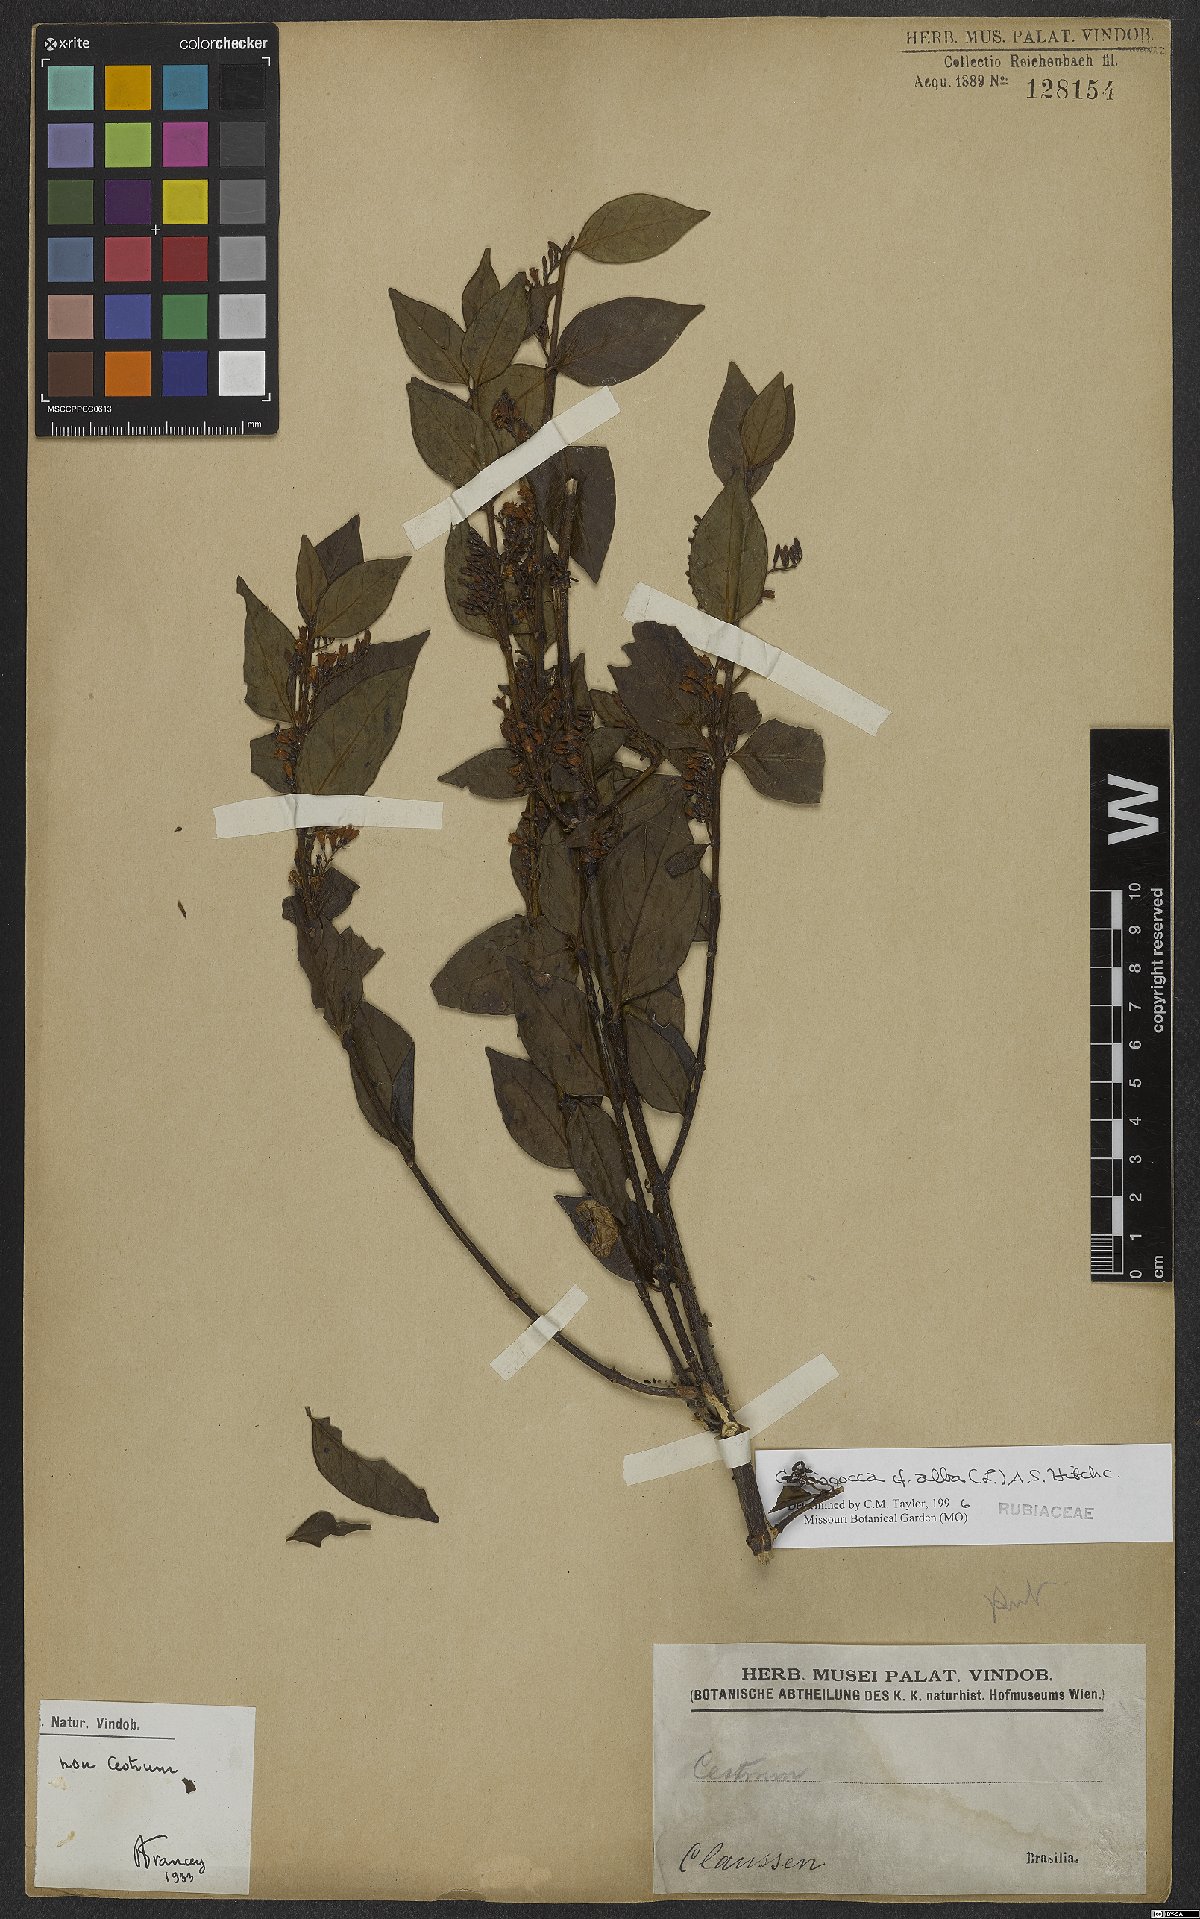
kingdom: Plantae
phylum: Tracheophyta
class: Magnoliopsida
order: Gentianales
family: Rubiaceae
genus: Chiococca
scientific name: Chiococca alba
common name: Snowberry
